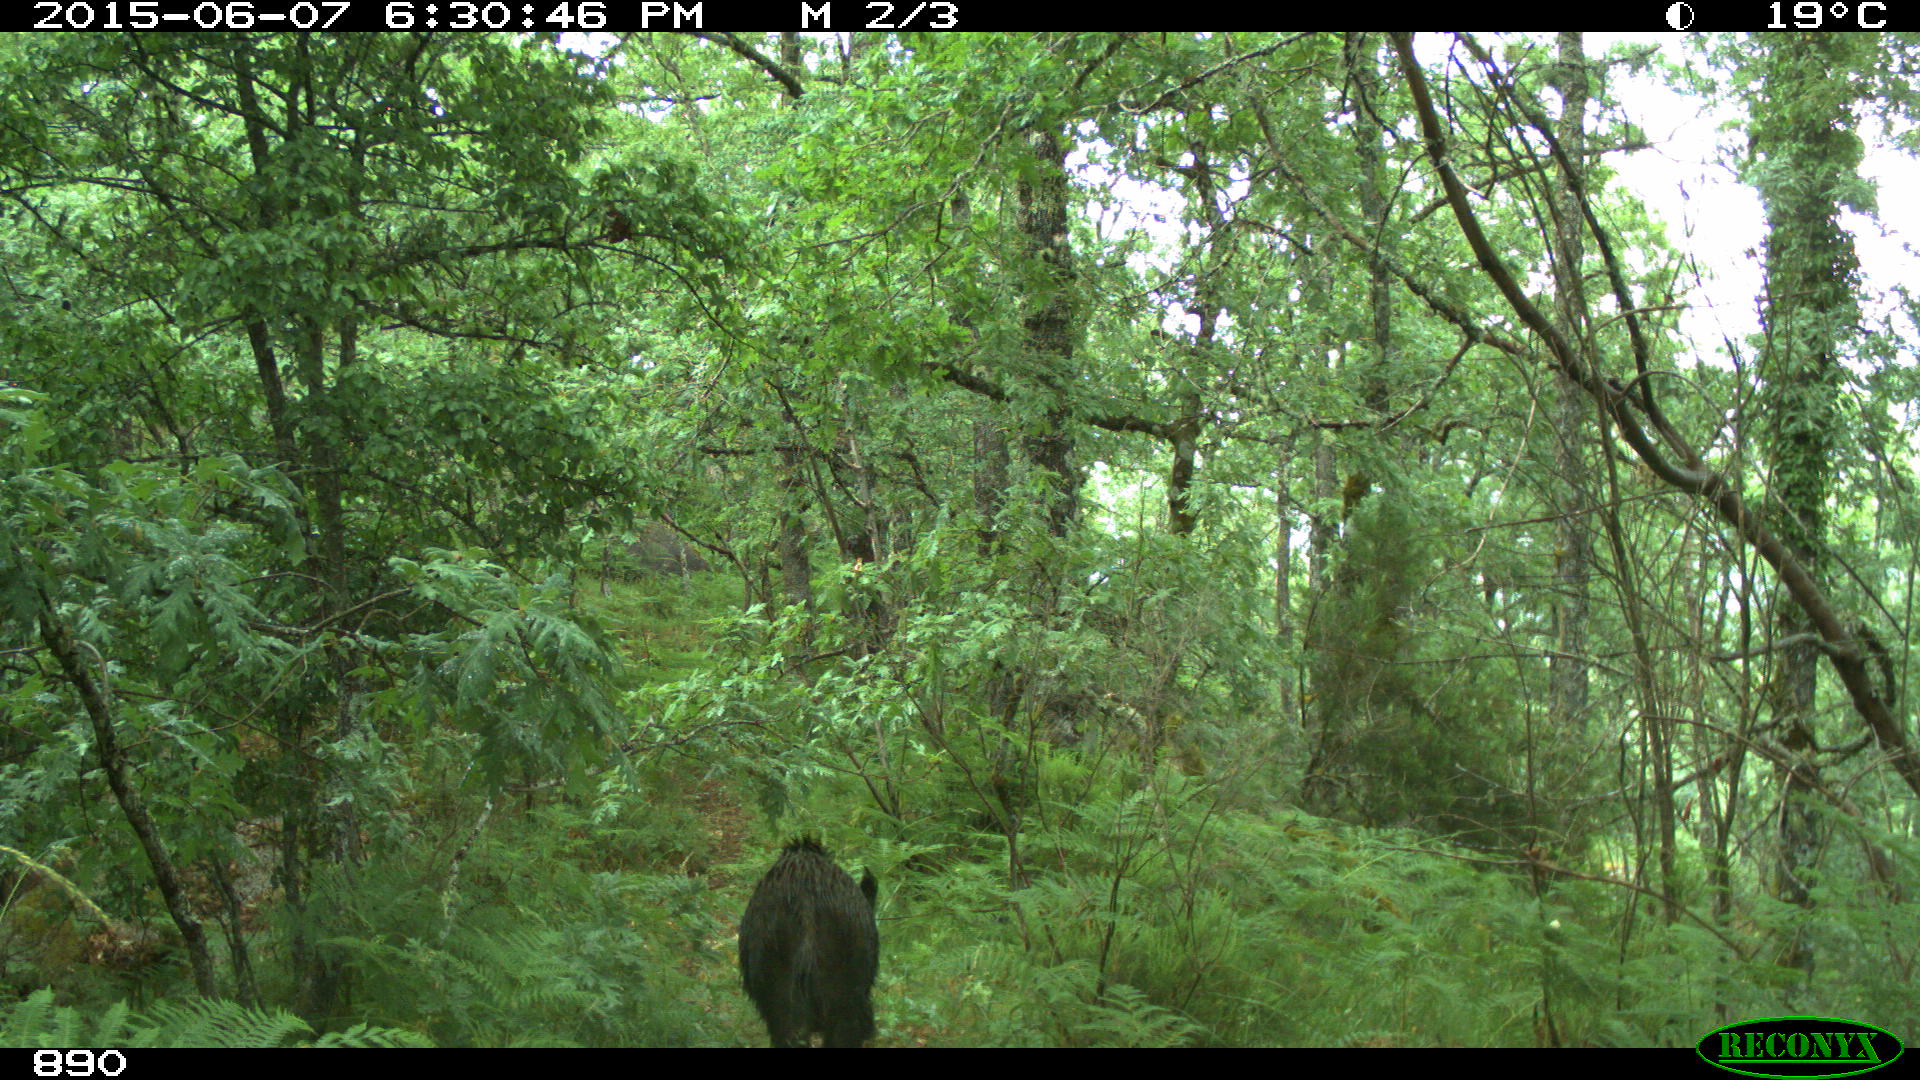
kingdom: Animalia
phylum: Chordata
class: Mammalia
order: Artiodactyla
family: Suidae
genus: Sus
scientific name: Sus scrofa
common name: Wild boar
